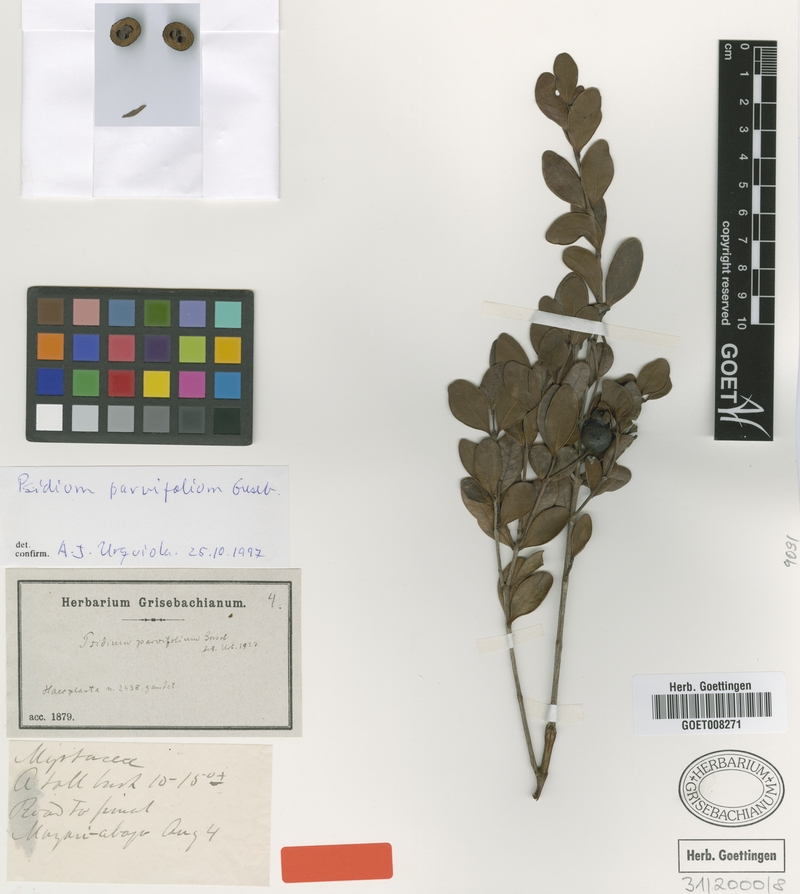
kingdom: Plantae
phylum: Tracheophyta
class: Magnoliopsida
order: Myrtales
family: Myrtaceae
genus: Psidium
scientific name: Psidium parvifolium
